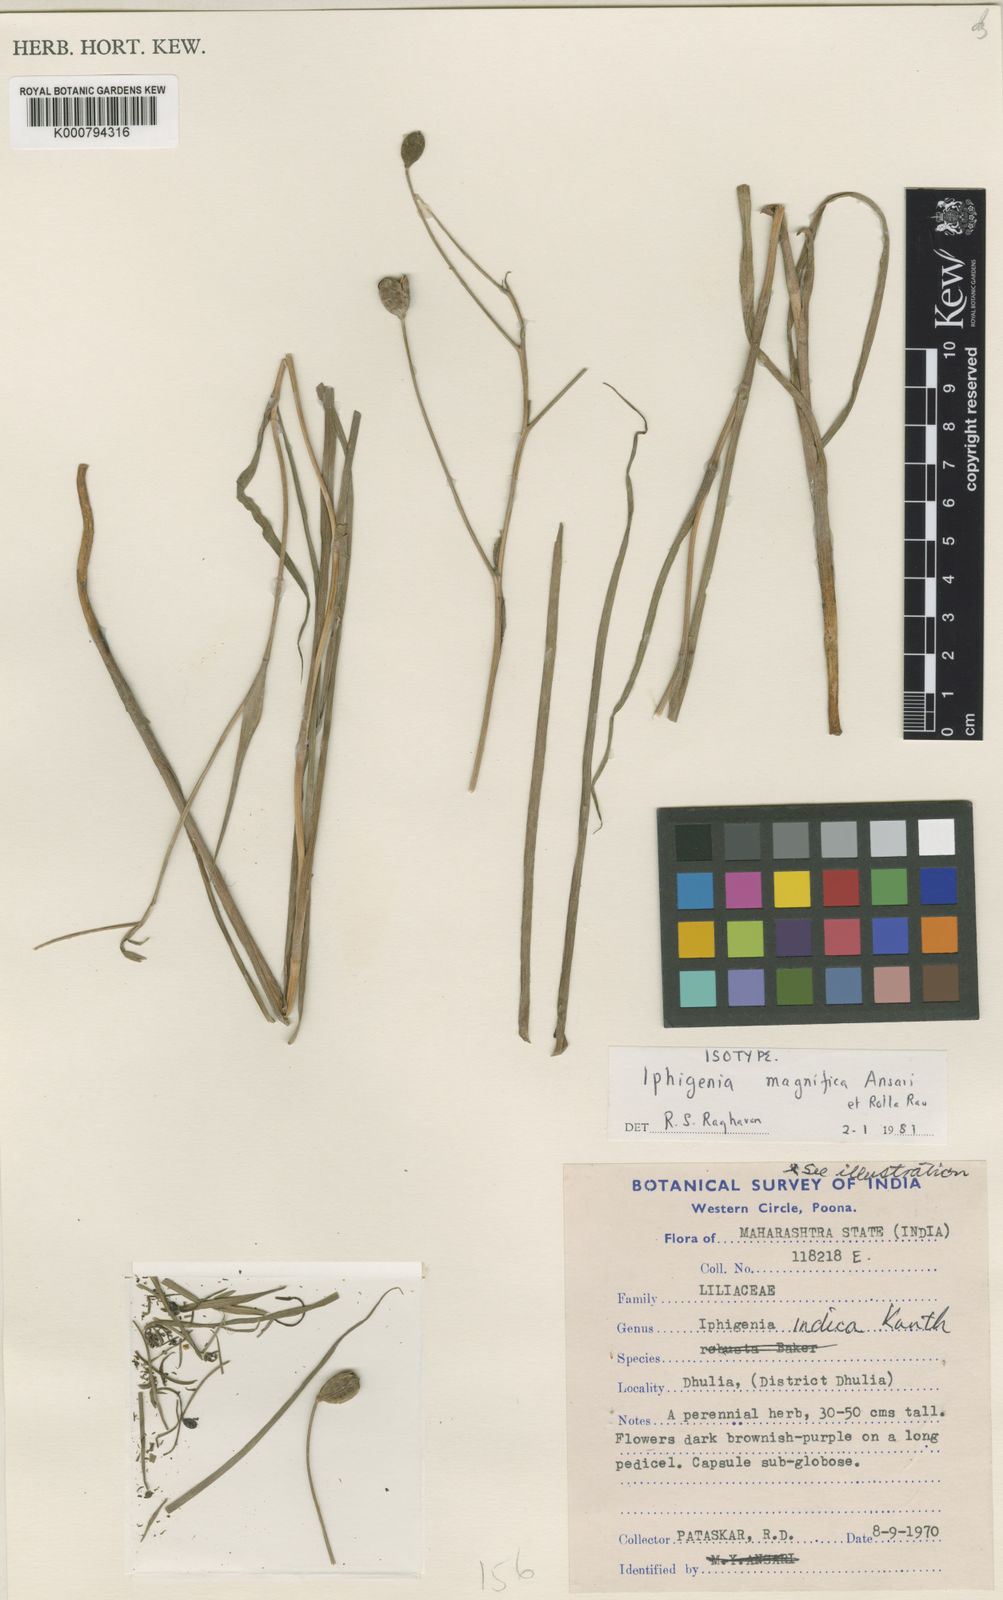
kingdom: Plantae
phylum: Tracheophyta
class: Liliopsida
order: Liliales
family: Colchicaceae
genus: Iphigenia
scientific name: Iphigenia magnifica
